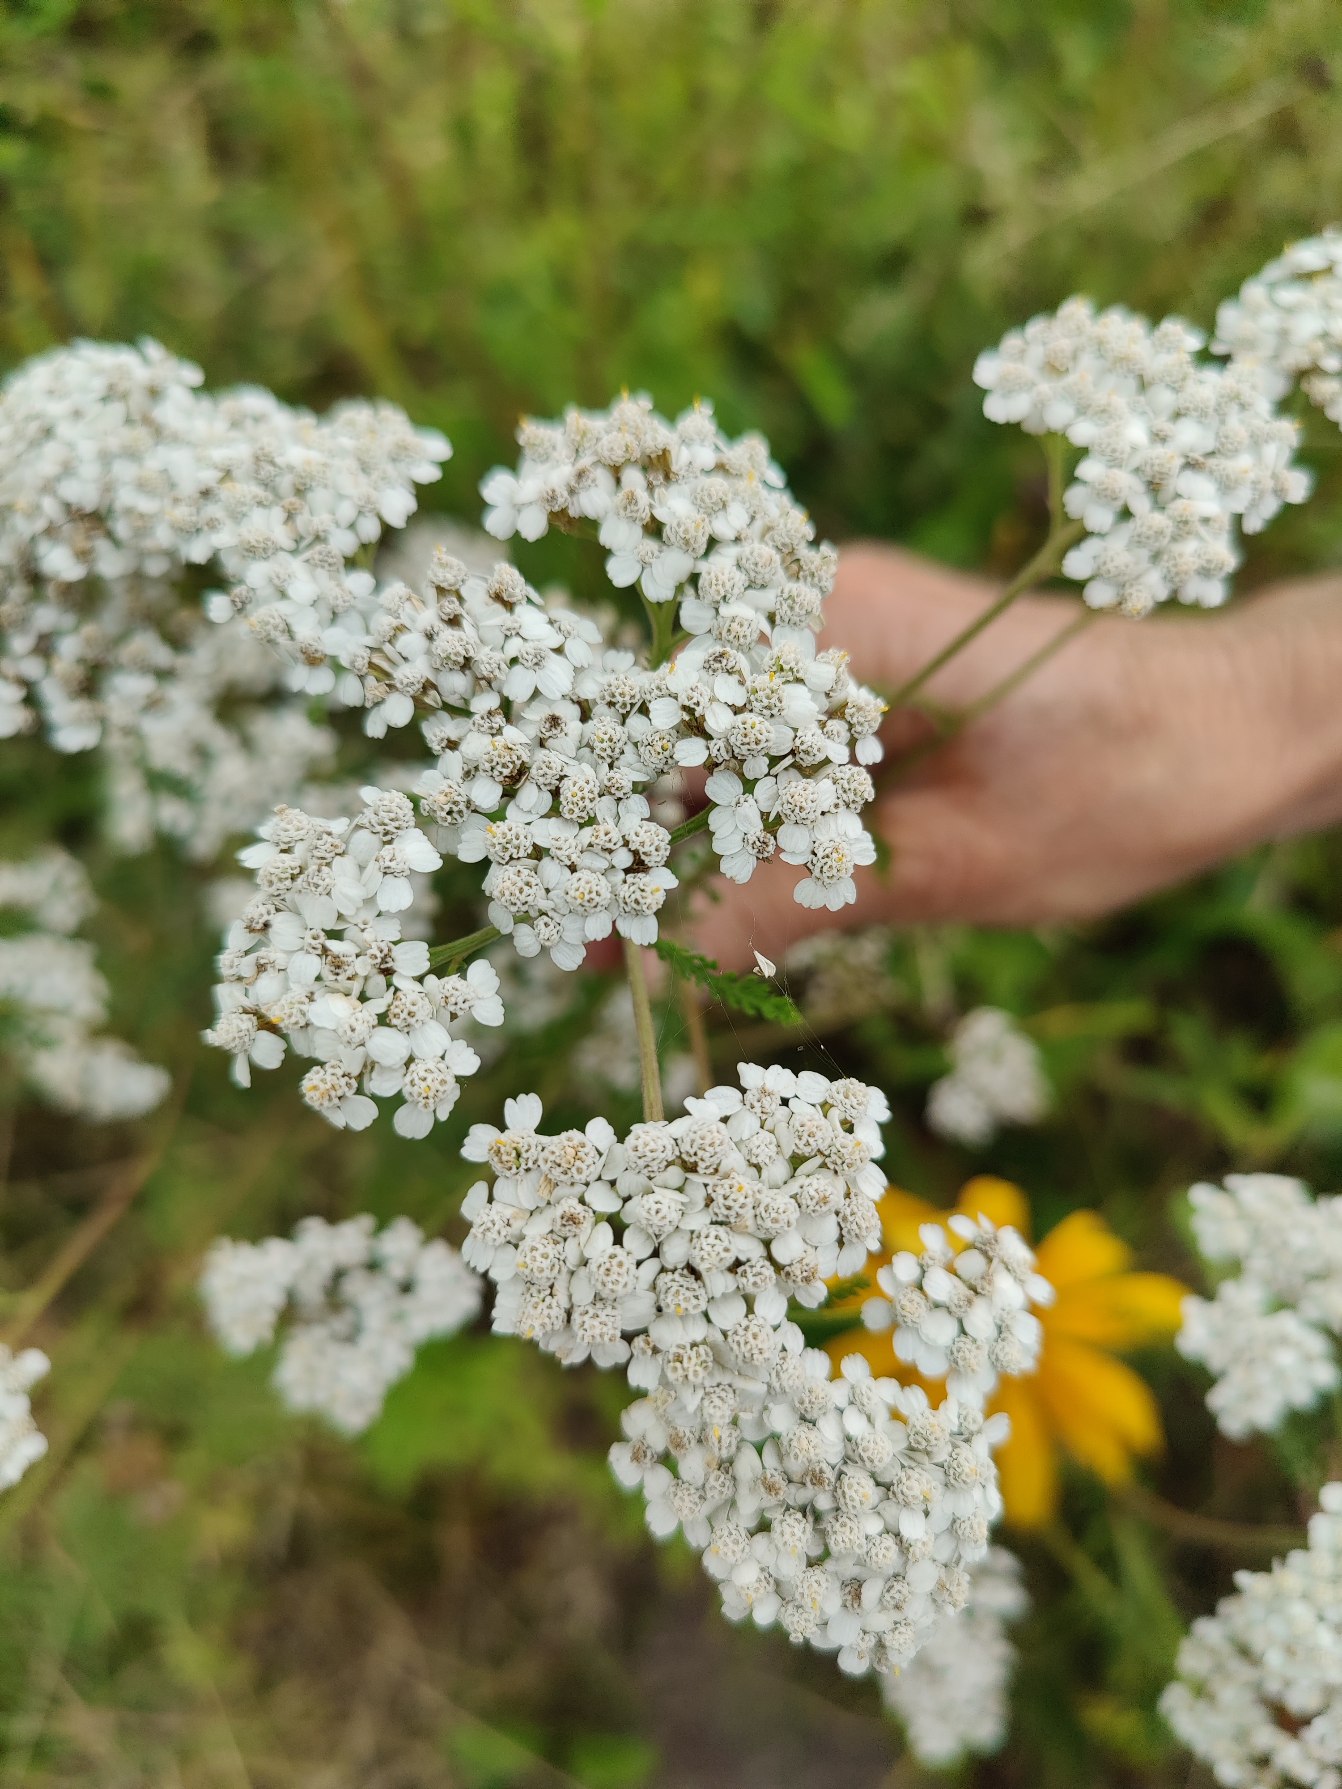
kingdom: Plantae
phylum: Tracheophyta
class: Magnoliopsida
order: Asterales
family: Asteraceae
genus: Achillea
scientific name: Achillea millefolium
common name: Almindelig røllike
